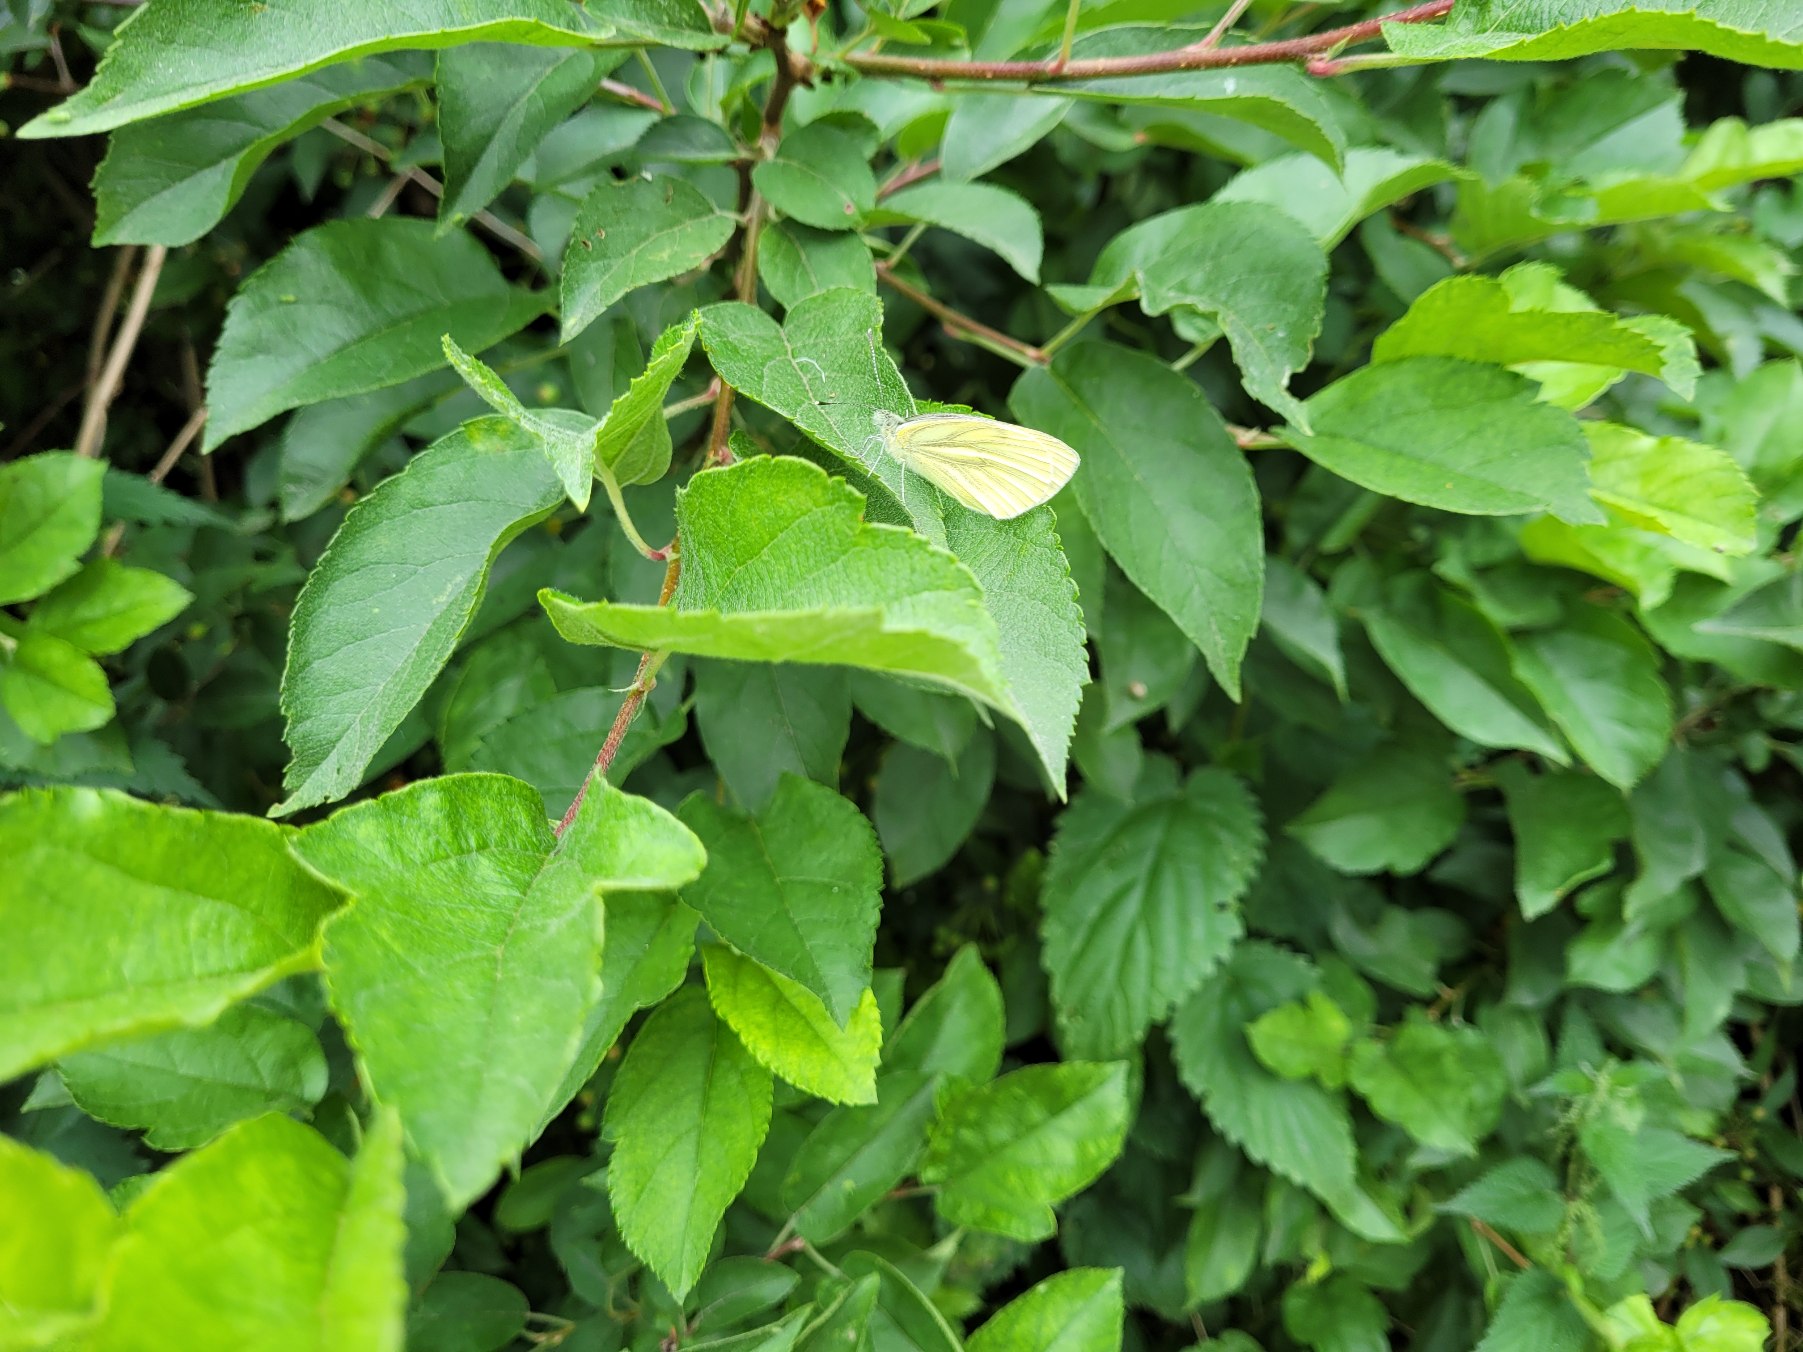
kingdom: Animalia
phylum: Arthropoda
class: Insecta
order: Lepidoptera
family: Pieridae
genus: Pieris
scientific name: Pieris napi
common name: Grønåret kålsommerfugl
